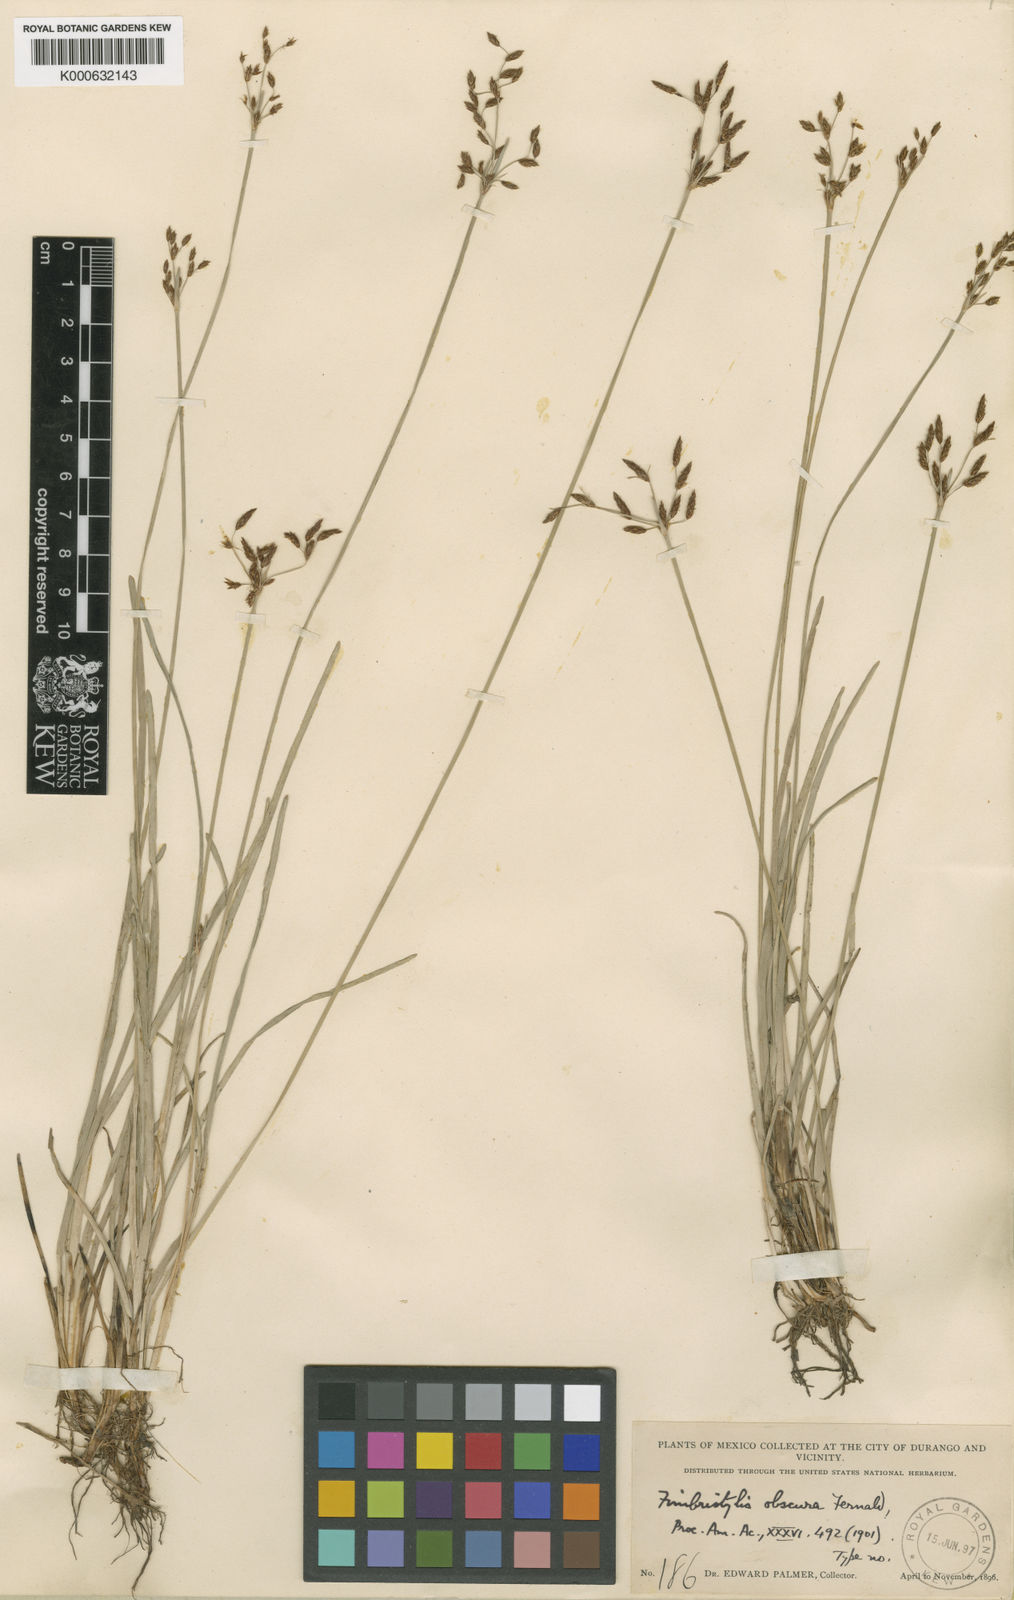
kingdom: Plantae
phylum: Tracheophyta
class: Liliopsida
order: Poales
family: Cyperaceae
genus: Fimbristylis
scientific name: Fimbristylis complanata
